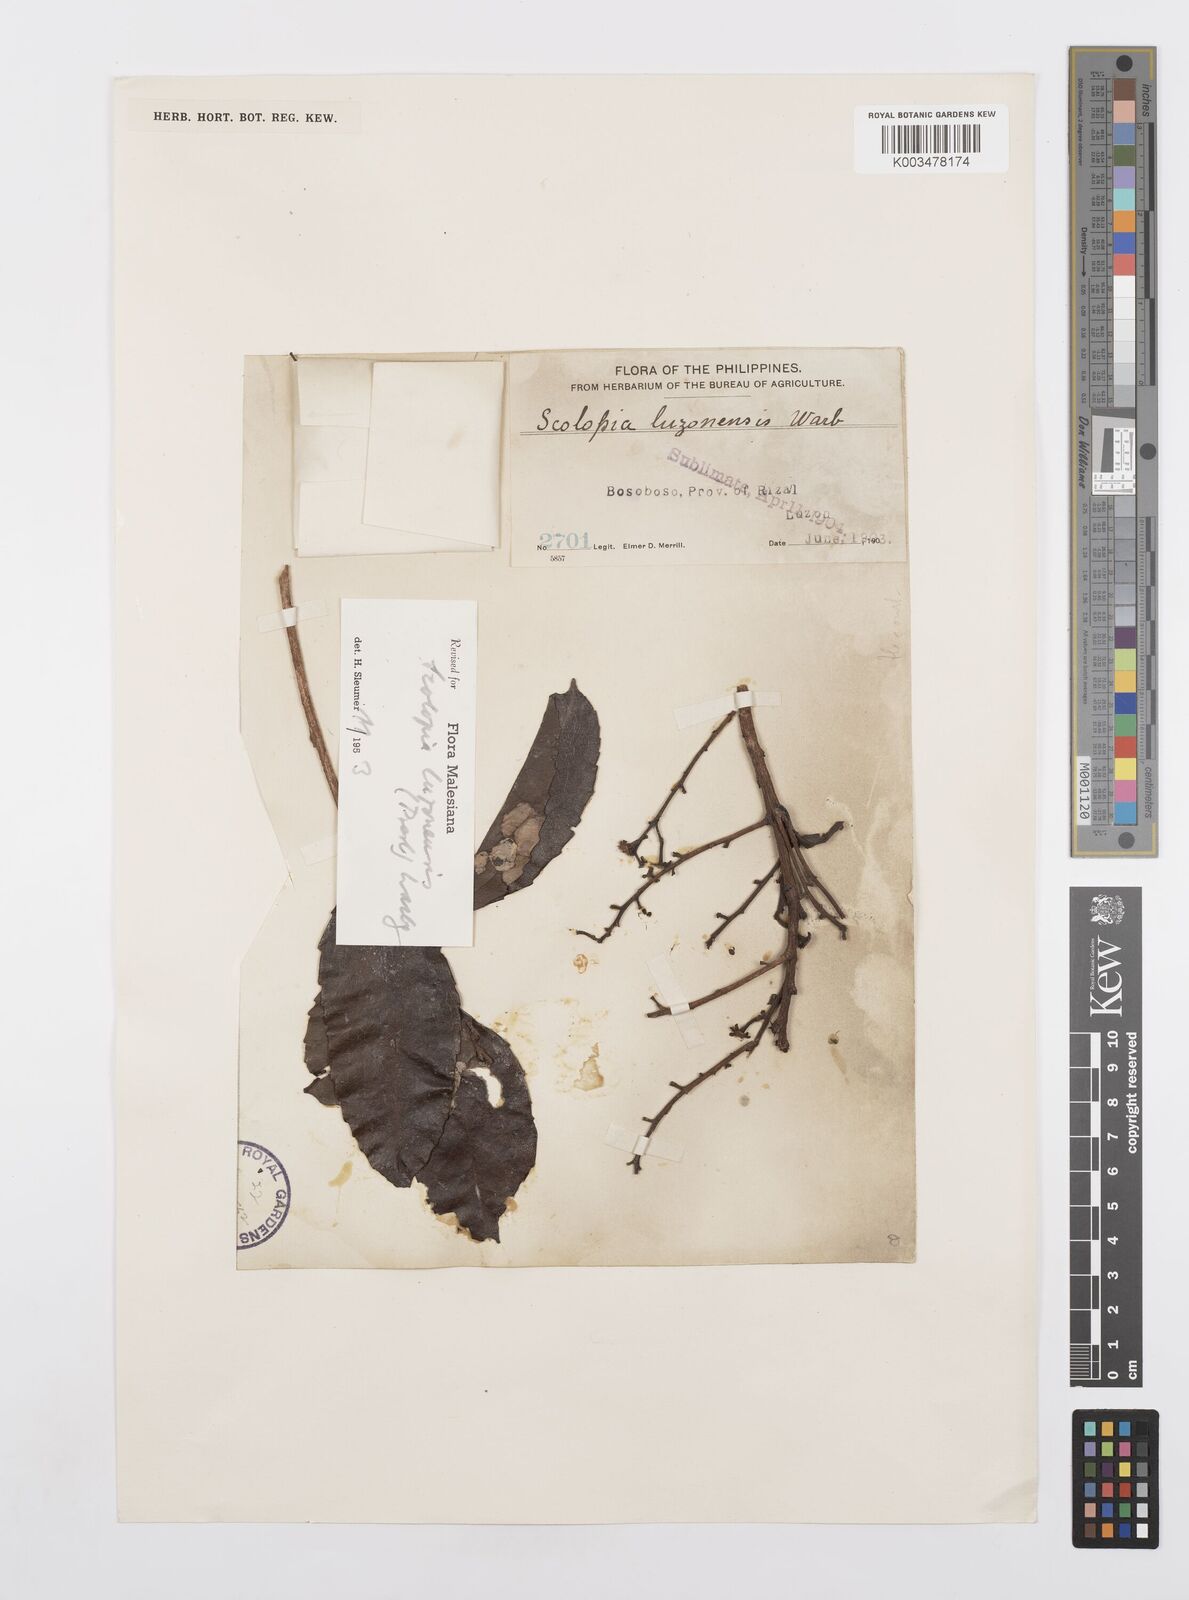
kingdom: Plantae
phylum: Tracheophyta
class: Magnoliopsida
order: Malpighiales
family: Salicaceae
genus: Scolopia
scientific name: Scolopia luzonensis
